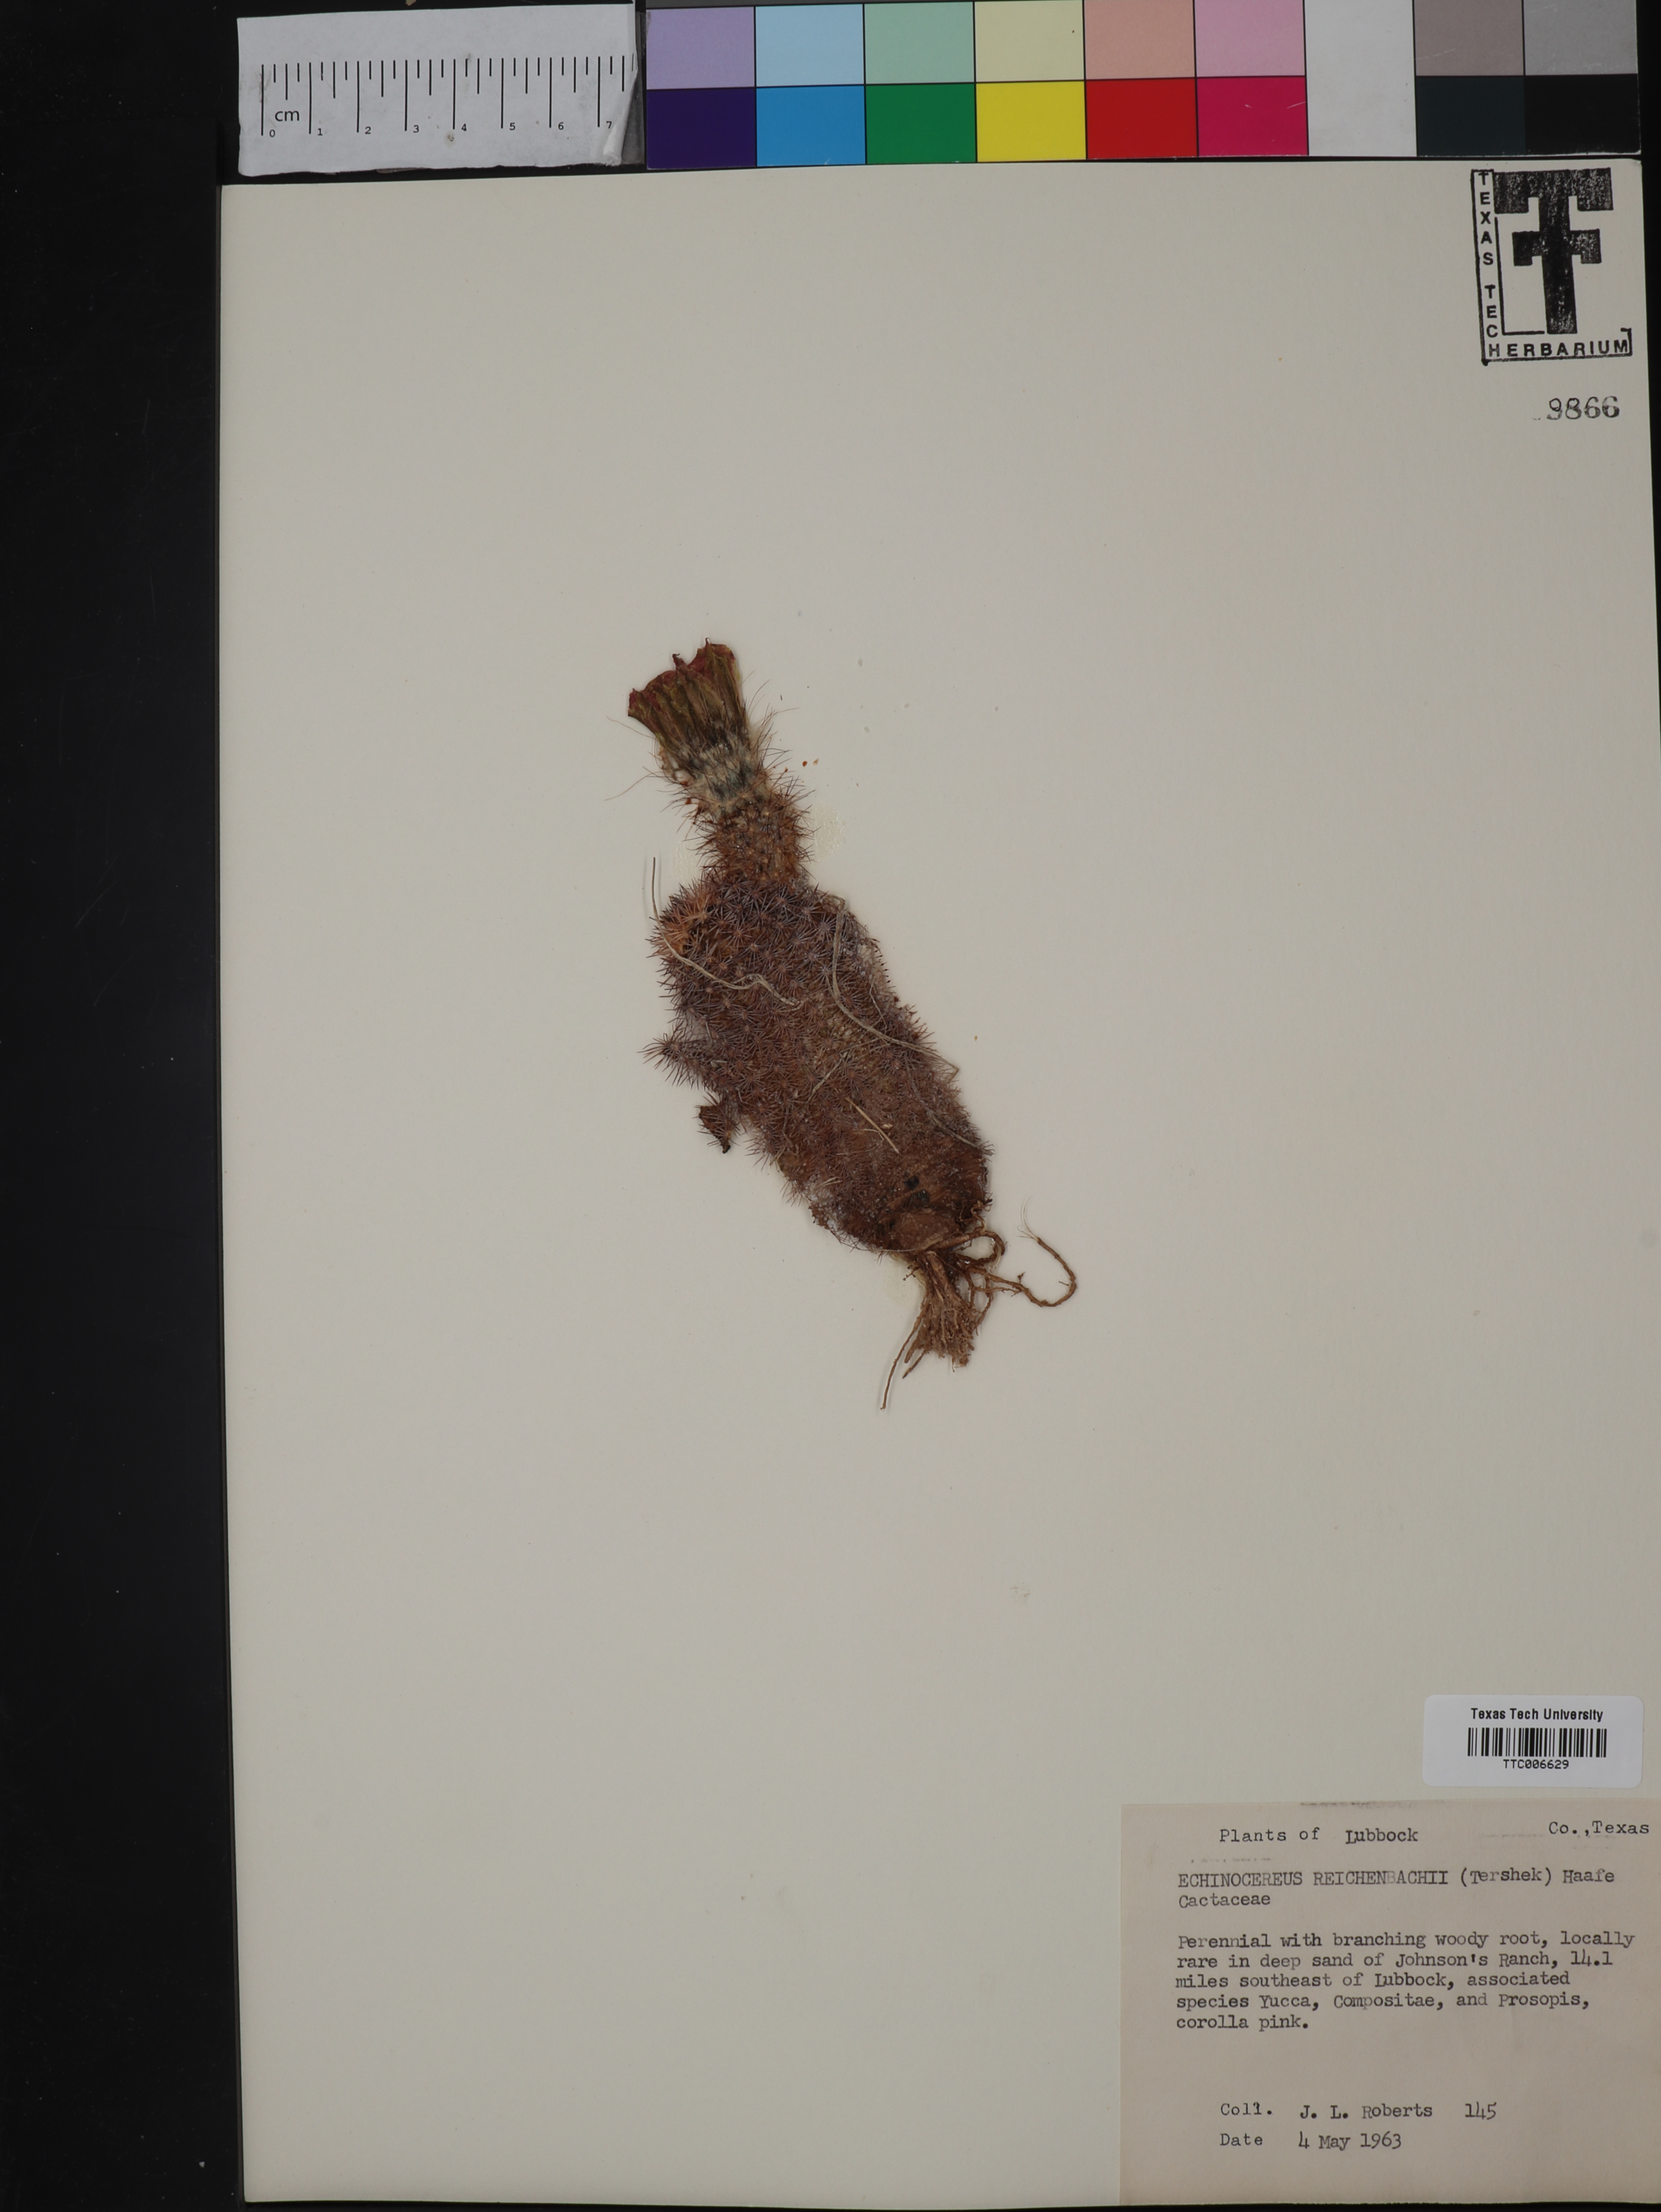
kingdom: Plantae
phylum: Tracheophyta
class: Magnoliopsida
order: Caryophyllales
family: Cactaceae
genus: Echinocereus
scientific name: Echinocereus reichenbachii
